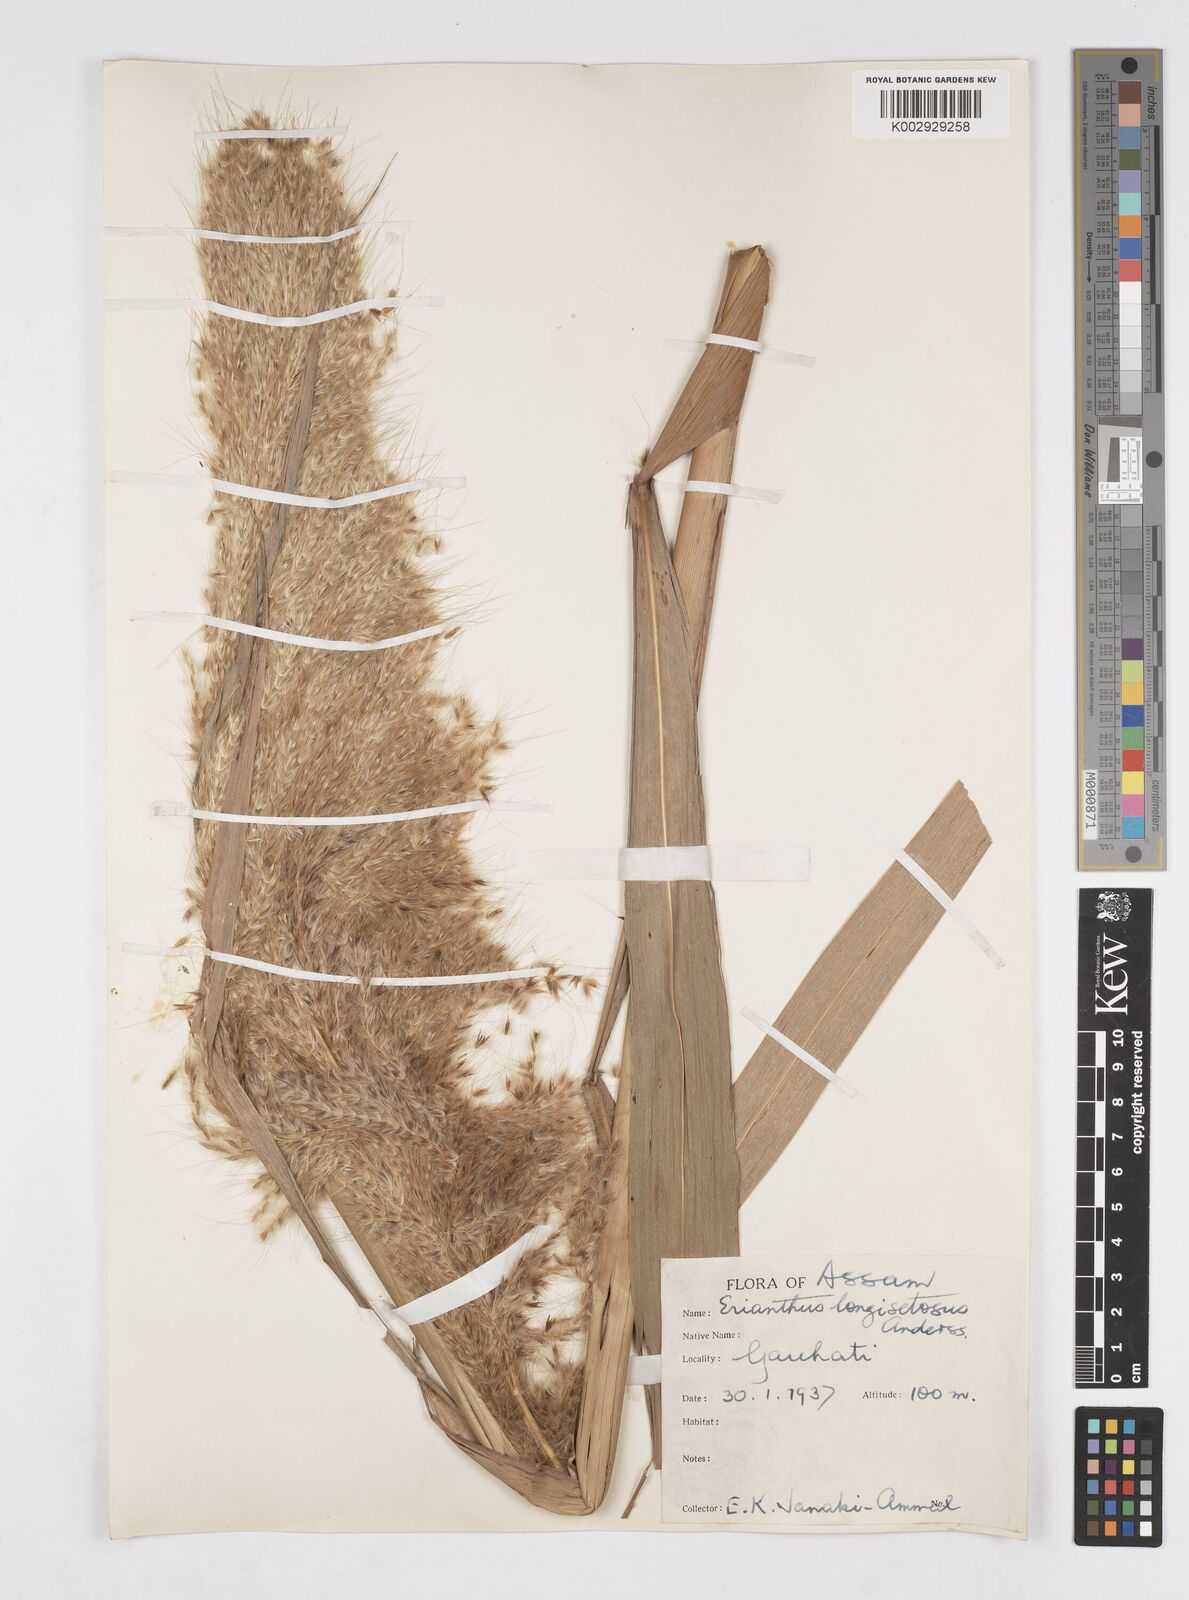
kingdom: Plantae
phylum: Tracheophyta
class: Liliopsida
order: Poales
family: Poaceae
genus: Saccharum
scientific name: Saccharum
